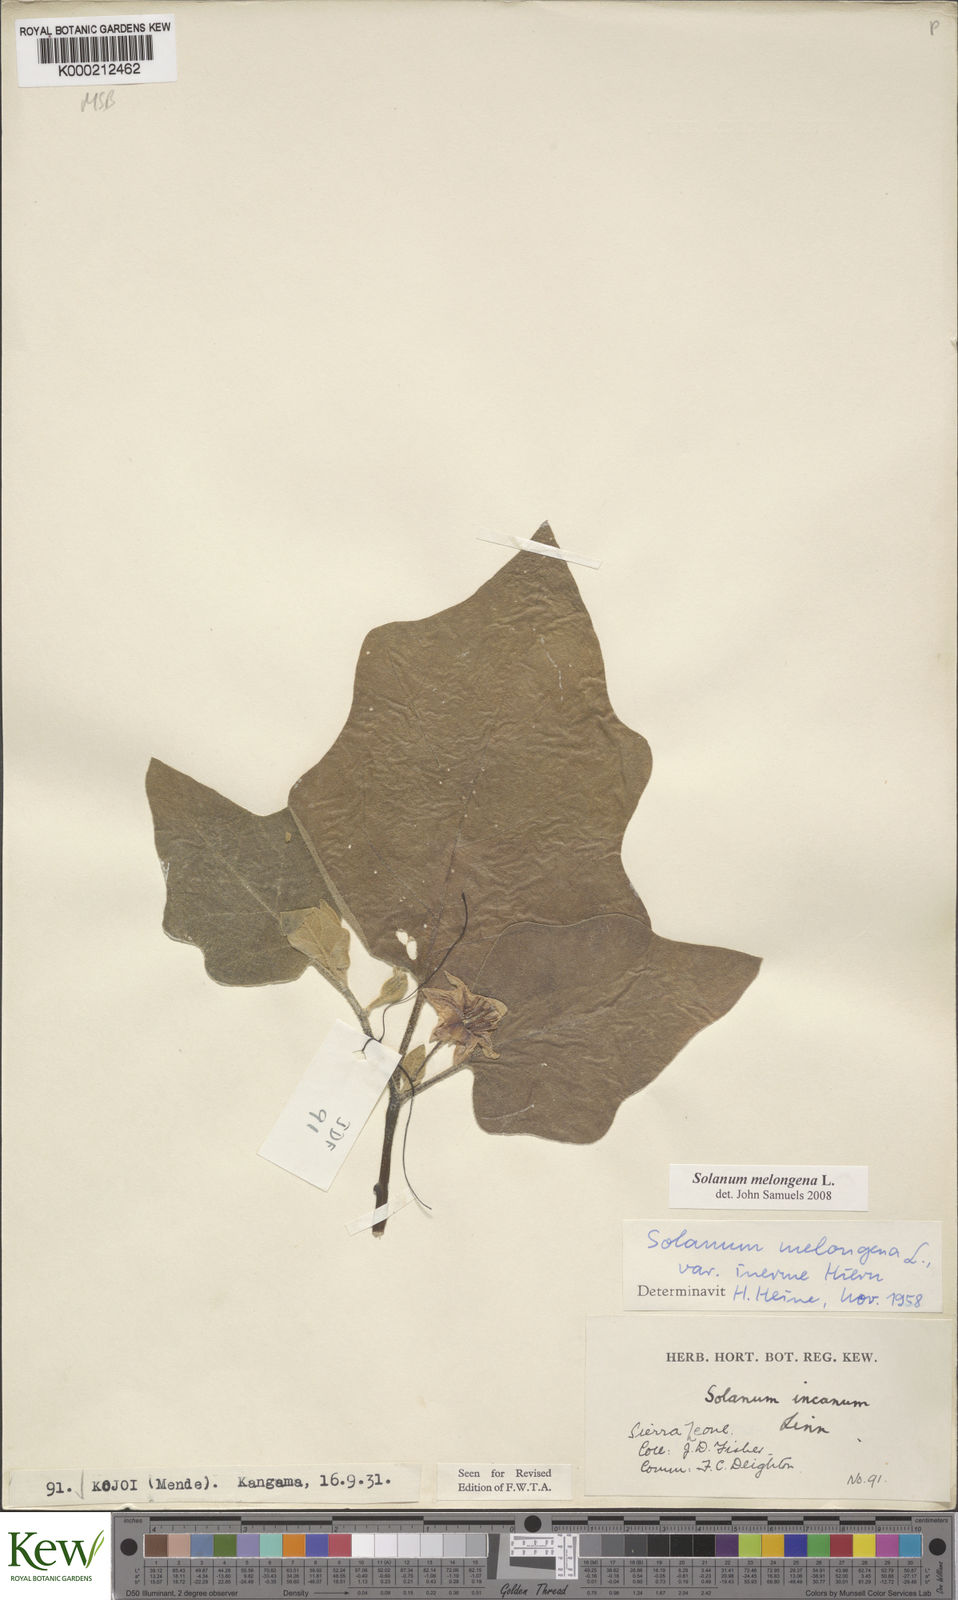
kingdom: Plantae
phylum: Tracheophyta
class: Magnoliopsida
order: Solanales
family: Solanaceae
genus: Solanum
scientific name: Solanum
